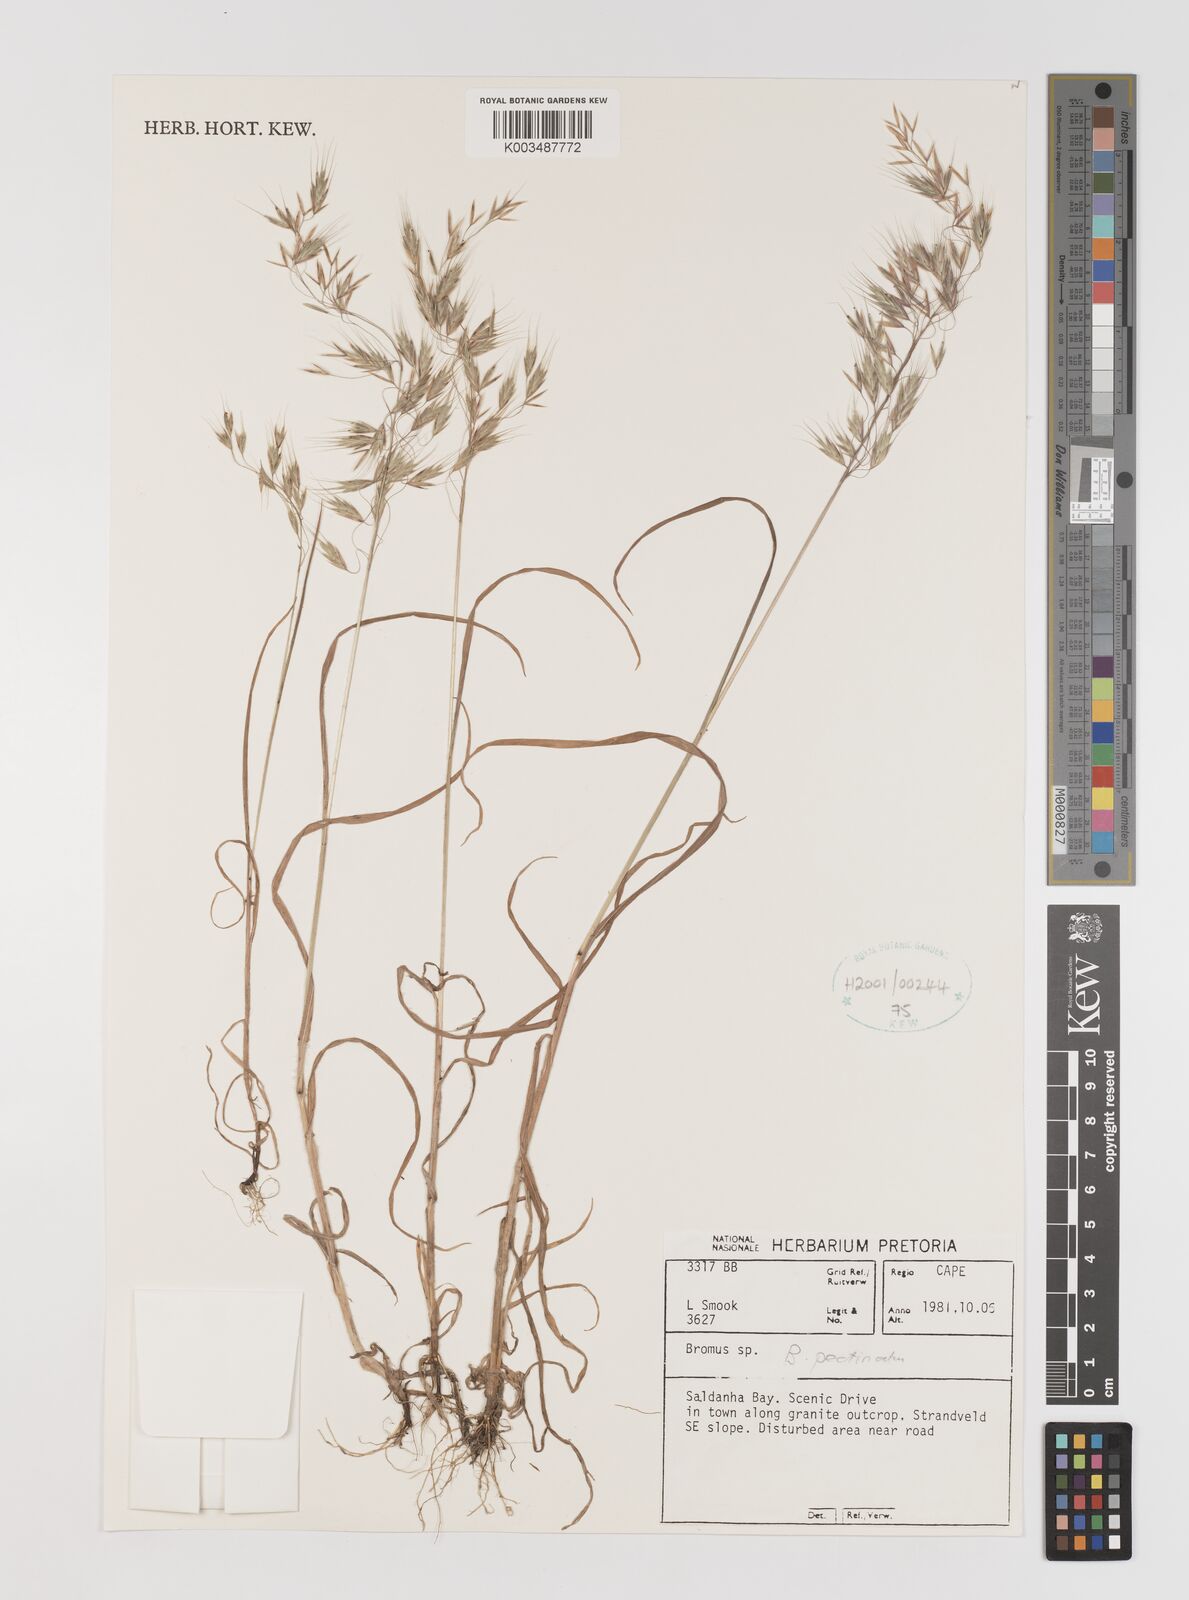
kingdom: Plantae
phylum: Tracheophyta
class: Liliopsida
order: Poales
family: Poaceae
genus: Bromus
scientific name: Bromus pectinatus
